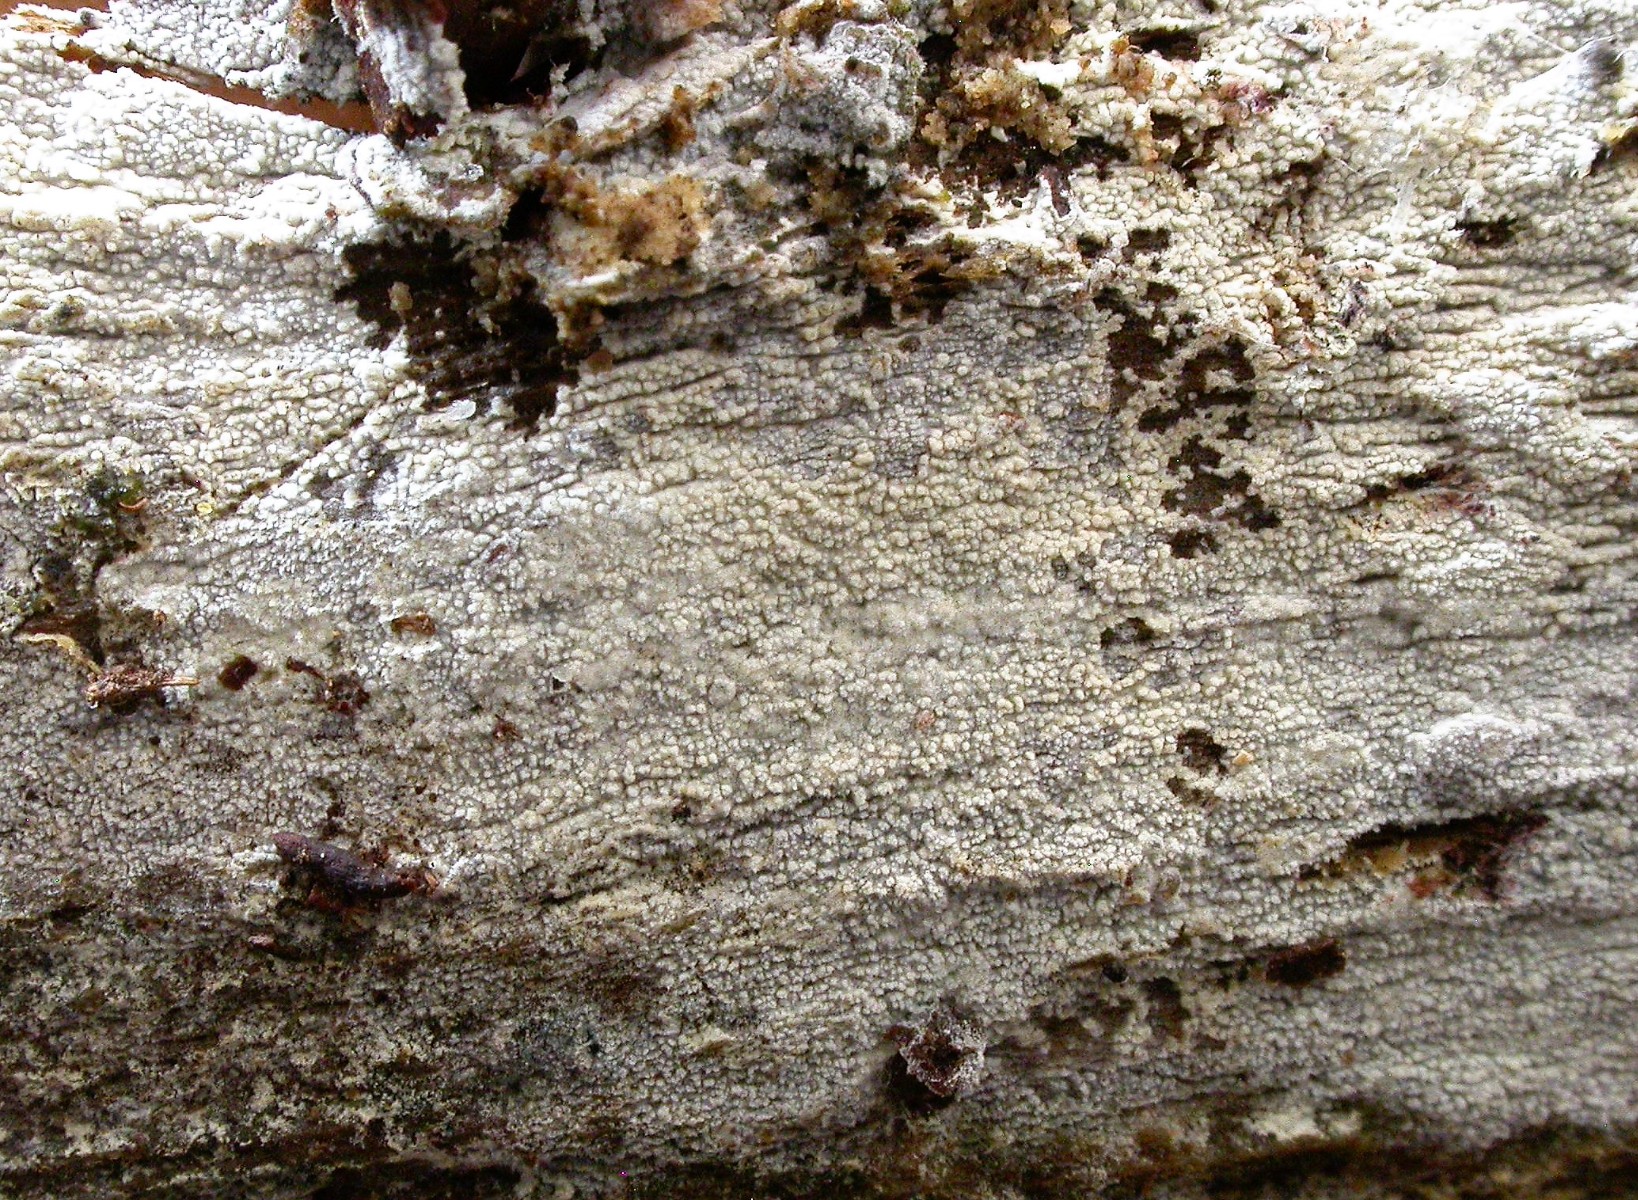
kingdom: Fungi
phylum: Basidiomycota
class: Agaricomycetes
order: Hymenochaetales
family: Schizoporaceae
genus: Xylodon
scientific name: Xylodon brevisetus
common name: tætvortet tandsvamp
